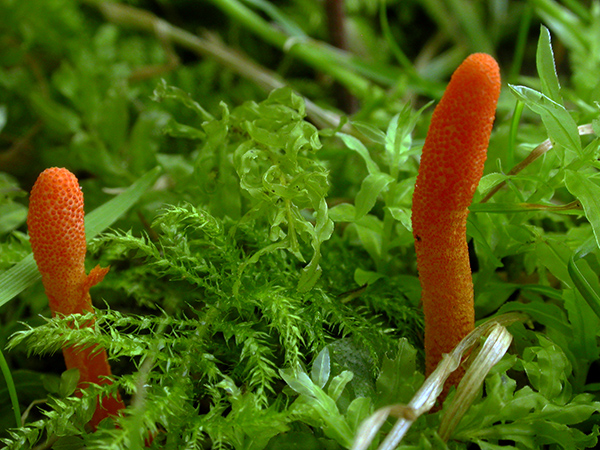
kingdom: Fungi
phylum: Ascomycota
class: Sordariomycetes
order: Hypocreales
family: Cordycipitaceae
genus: Cordyceps
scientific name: Cordyceps militaris
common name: puppe-snyltekølle
